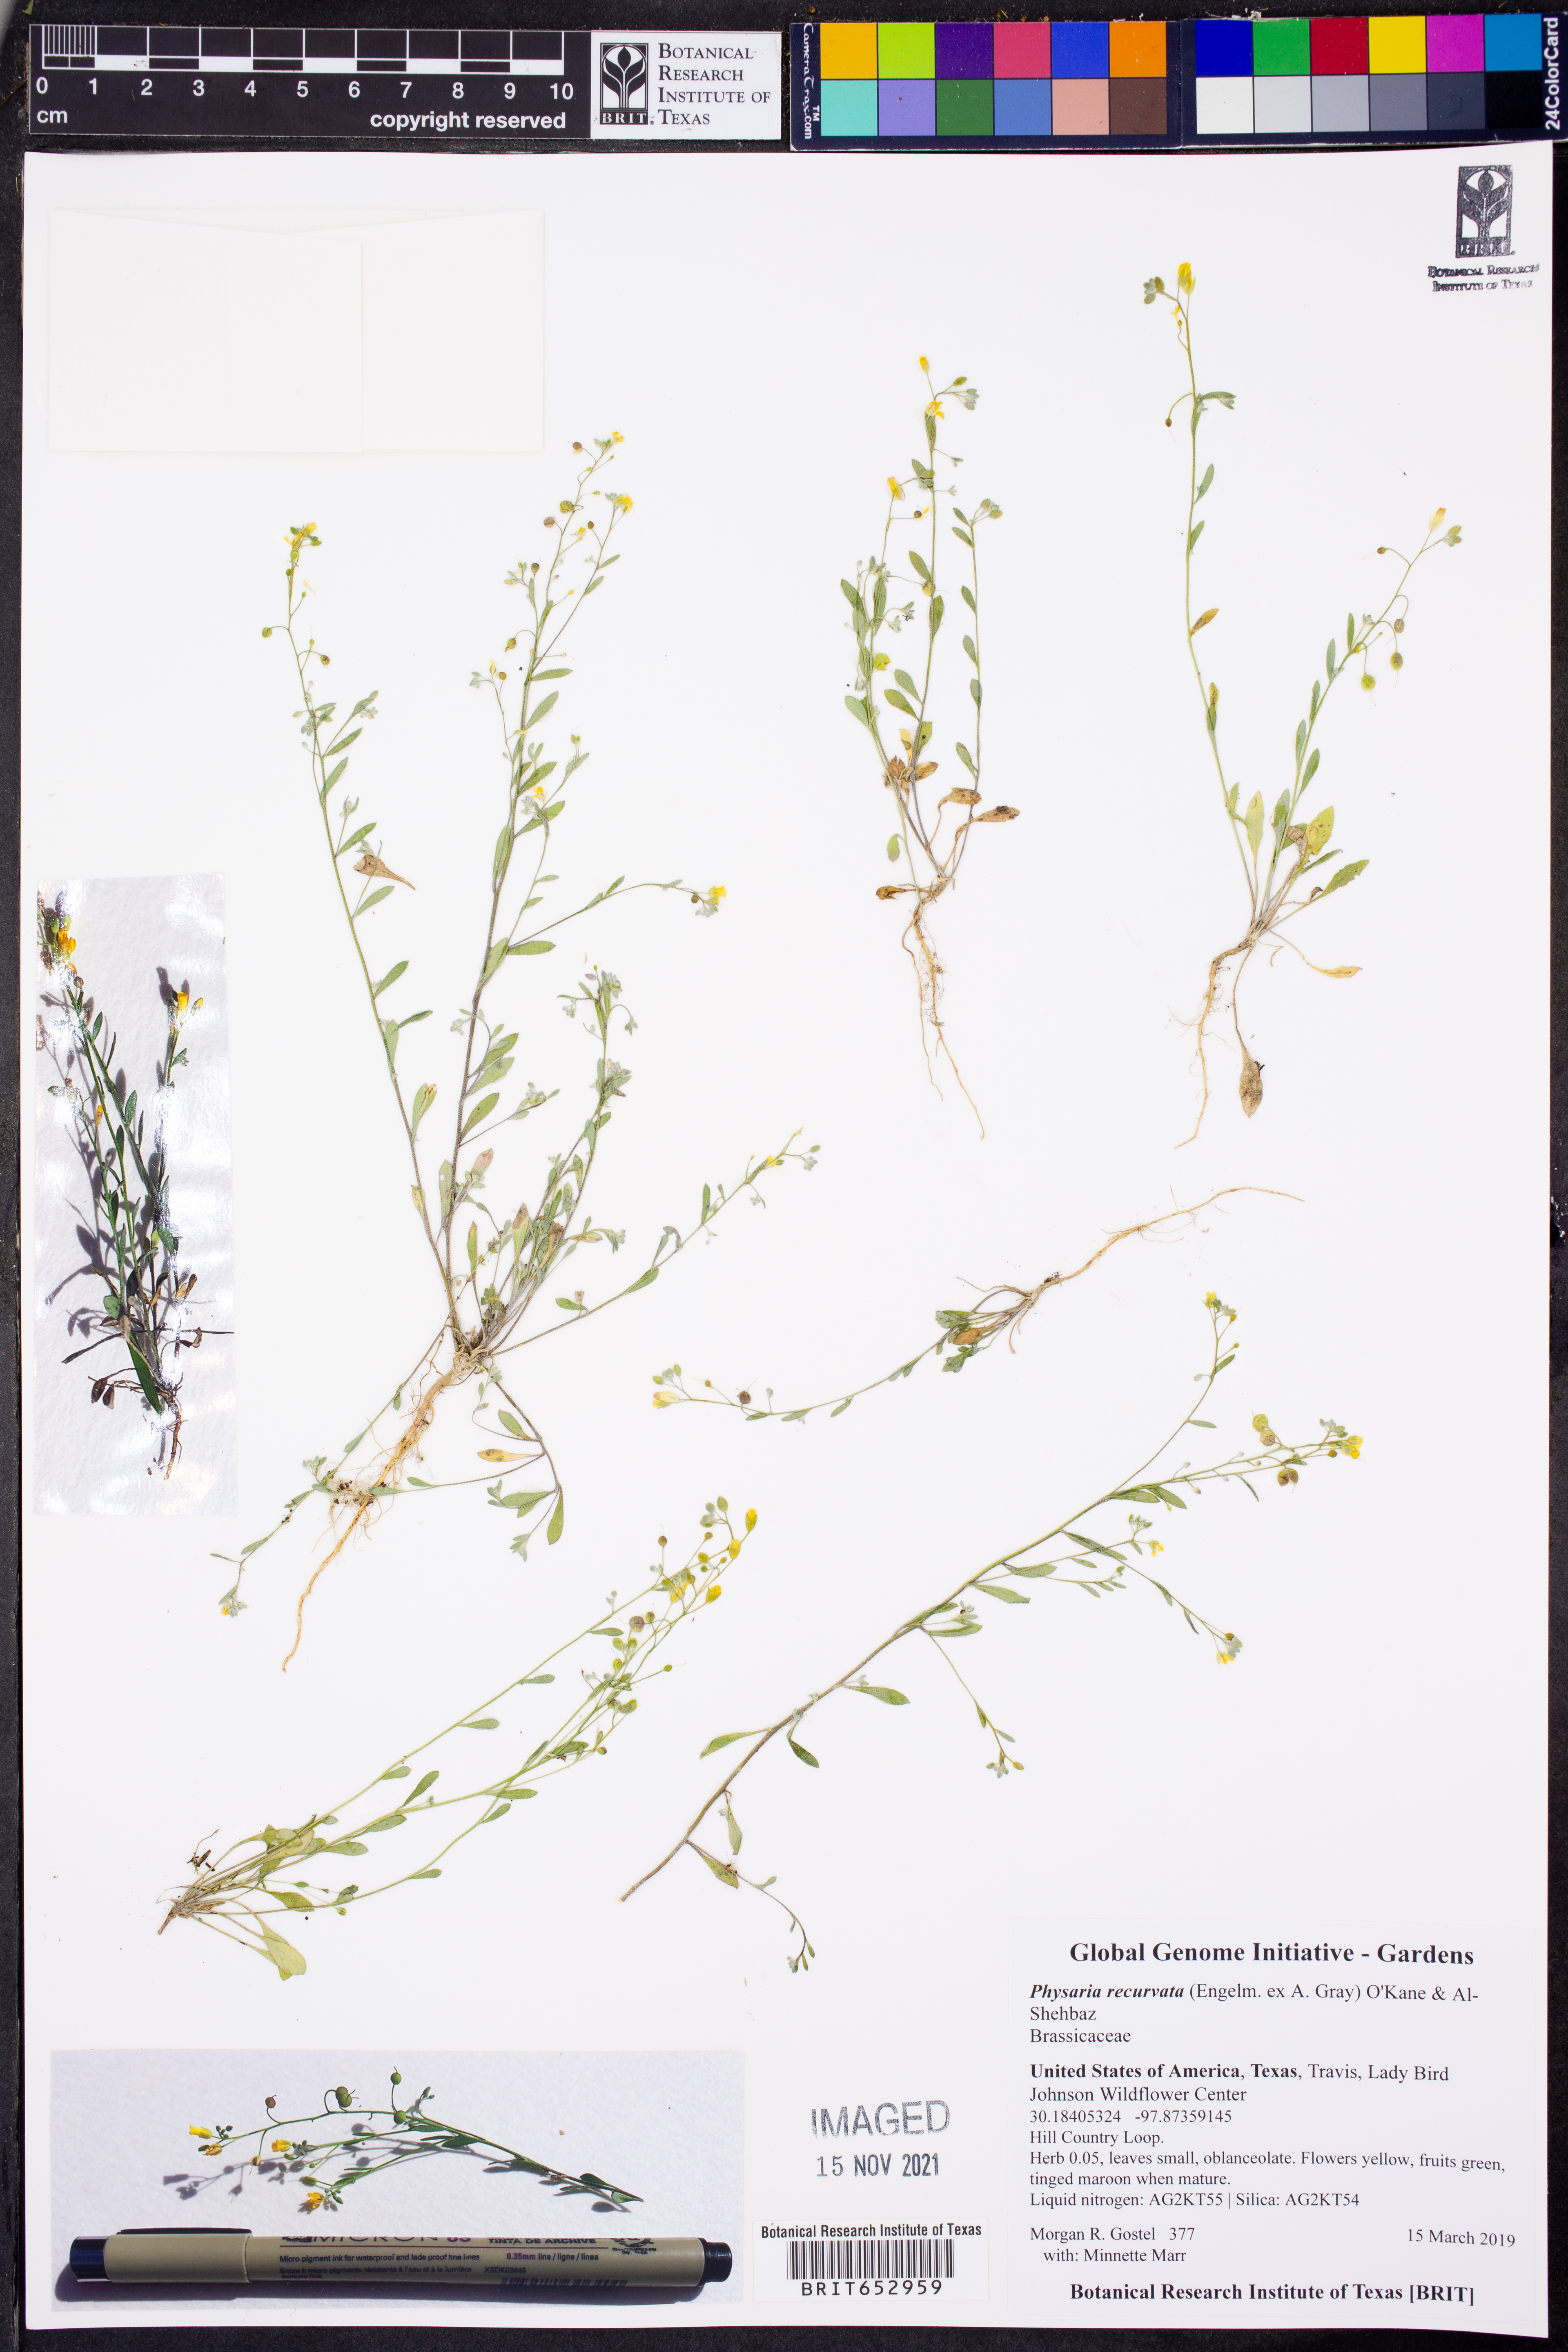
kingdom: Plantae
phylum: Tracheophyta
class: Magnoliopsida
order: Brassicales
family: Brassicaceae
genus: Physaria
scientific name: Physaria recurvata
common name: Gaslight bladderpod
